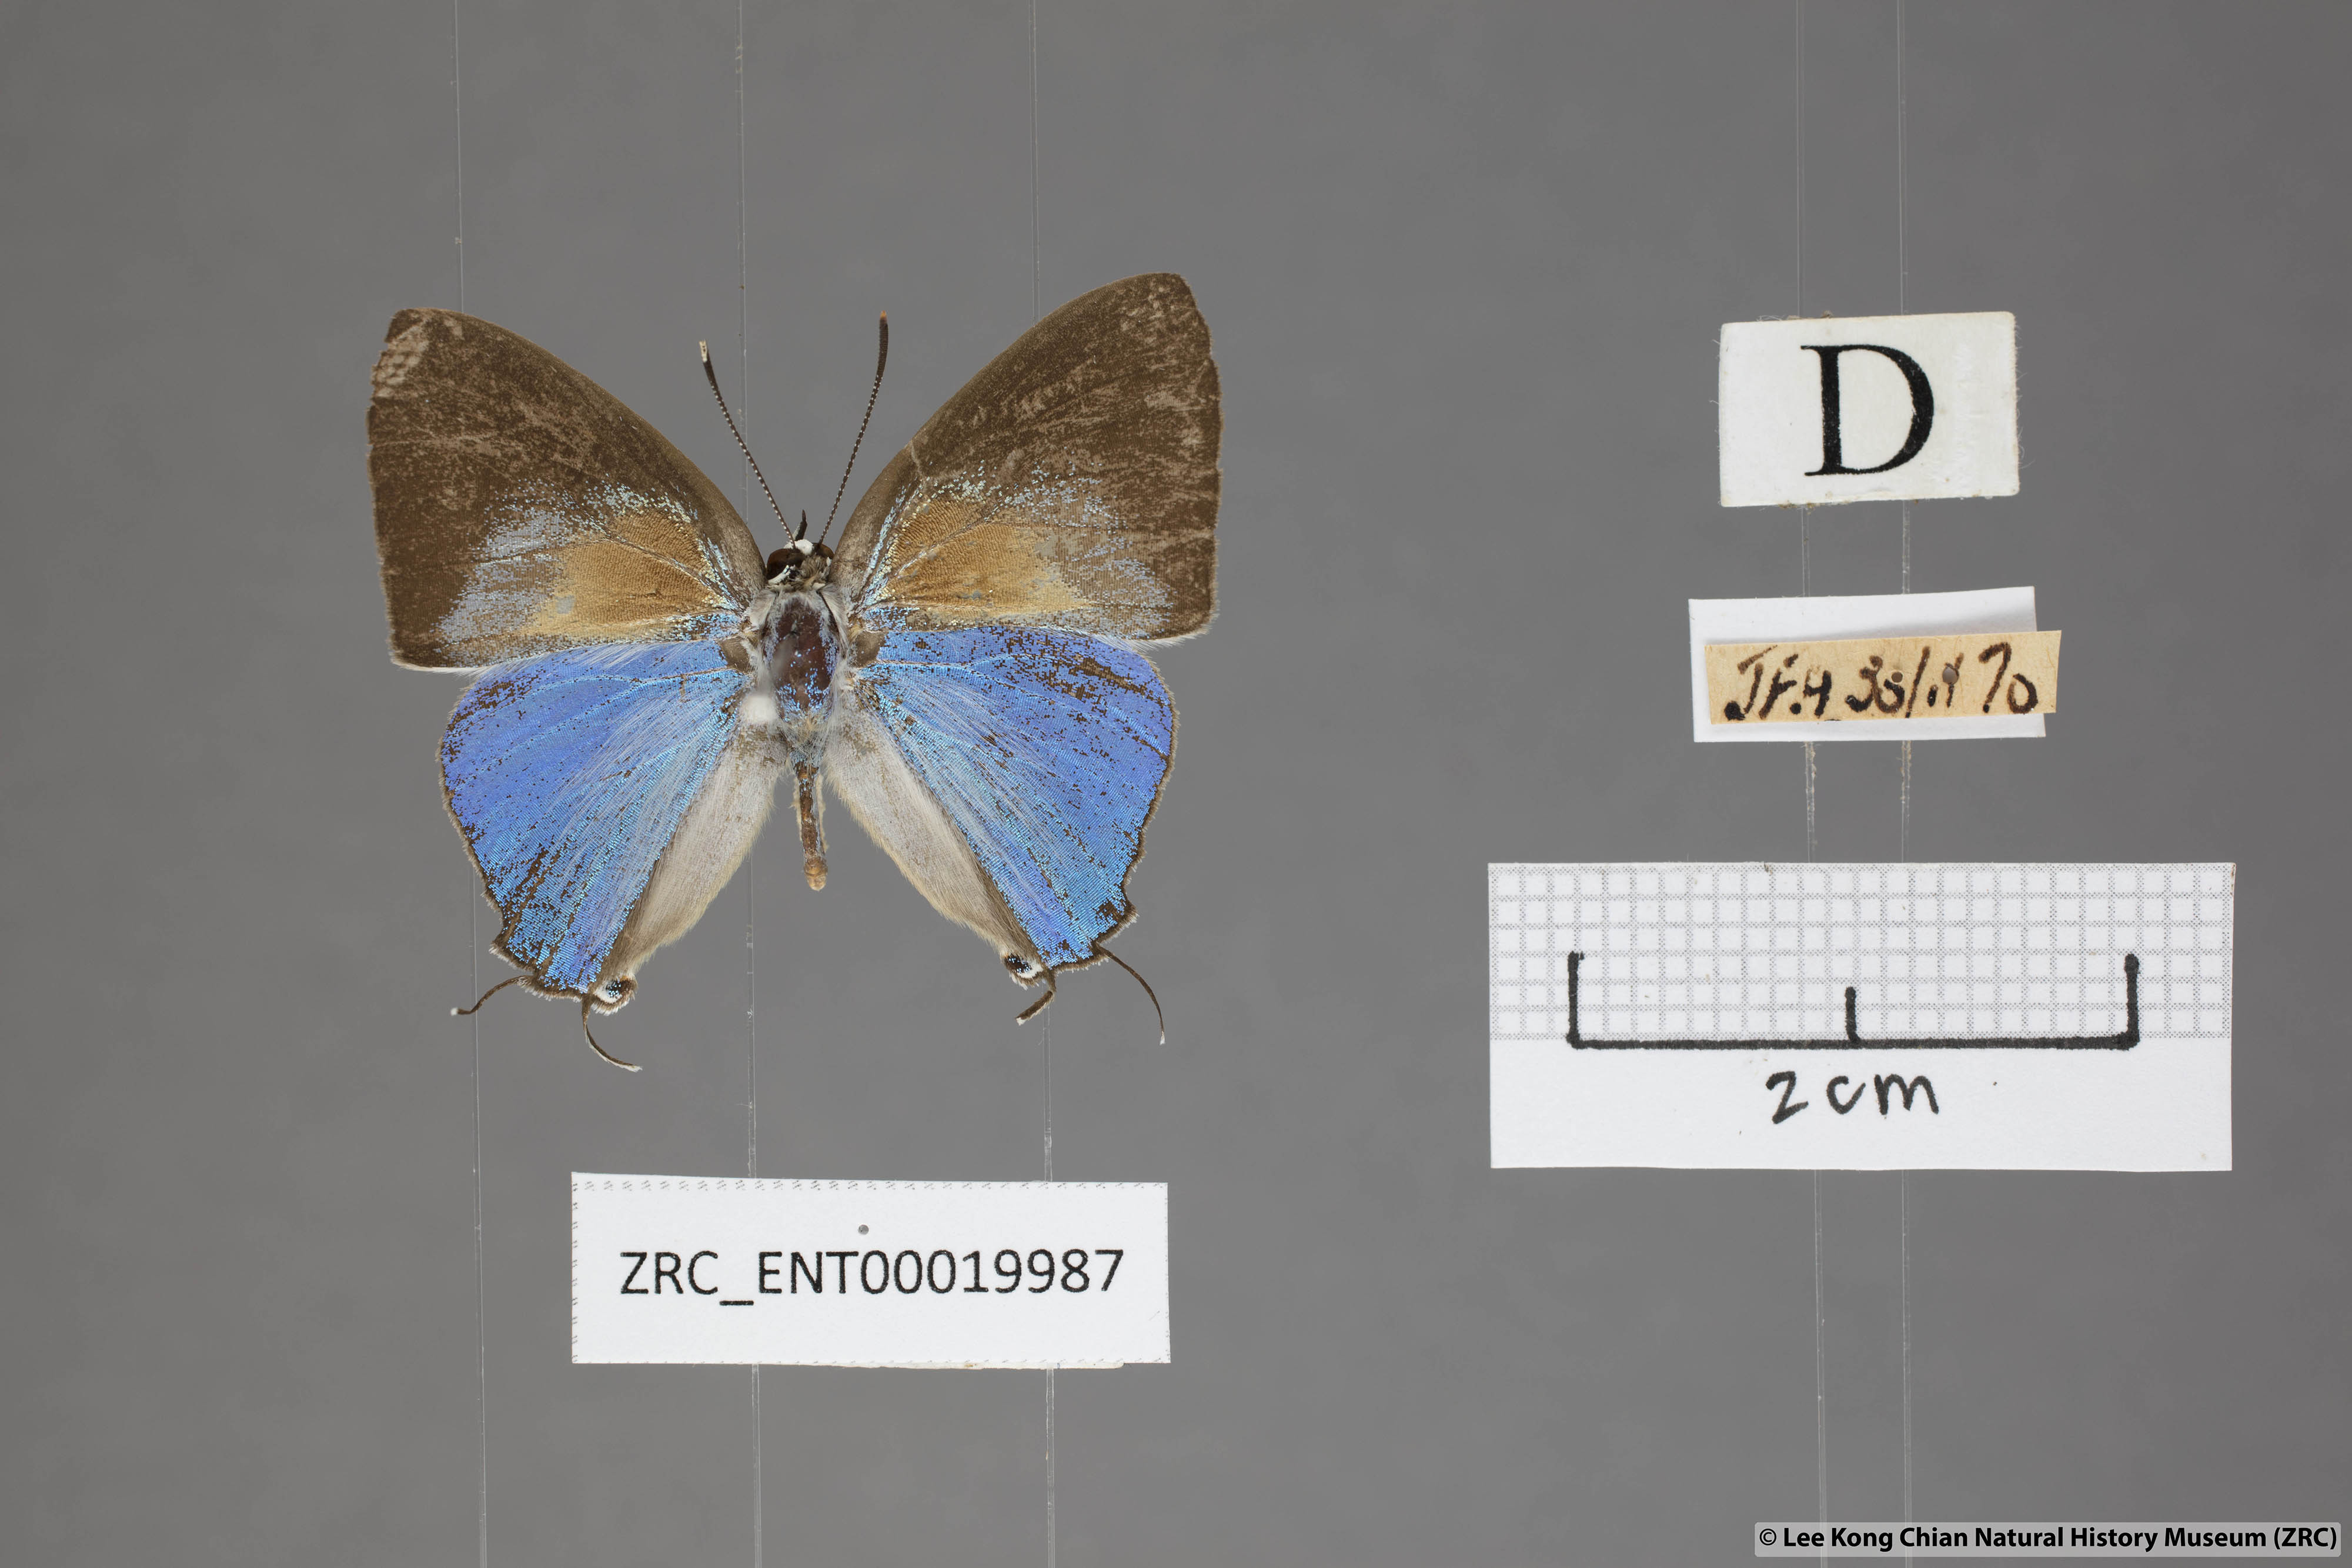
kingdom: Animalia
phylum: Arthropoda
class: Insecta
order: Lepidoptera
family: Lycaenidae
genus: Bullis
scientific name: Bullis elioti
